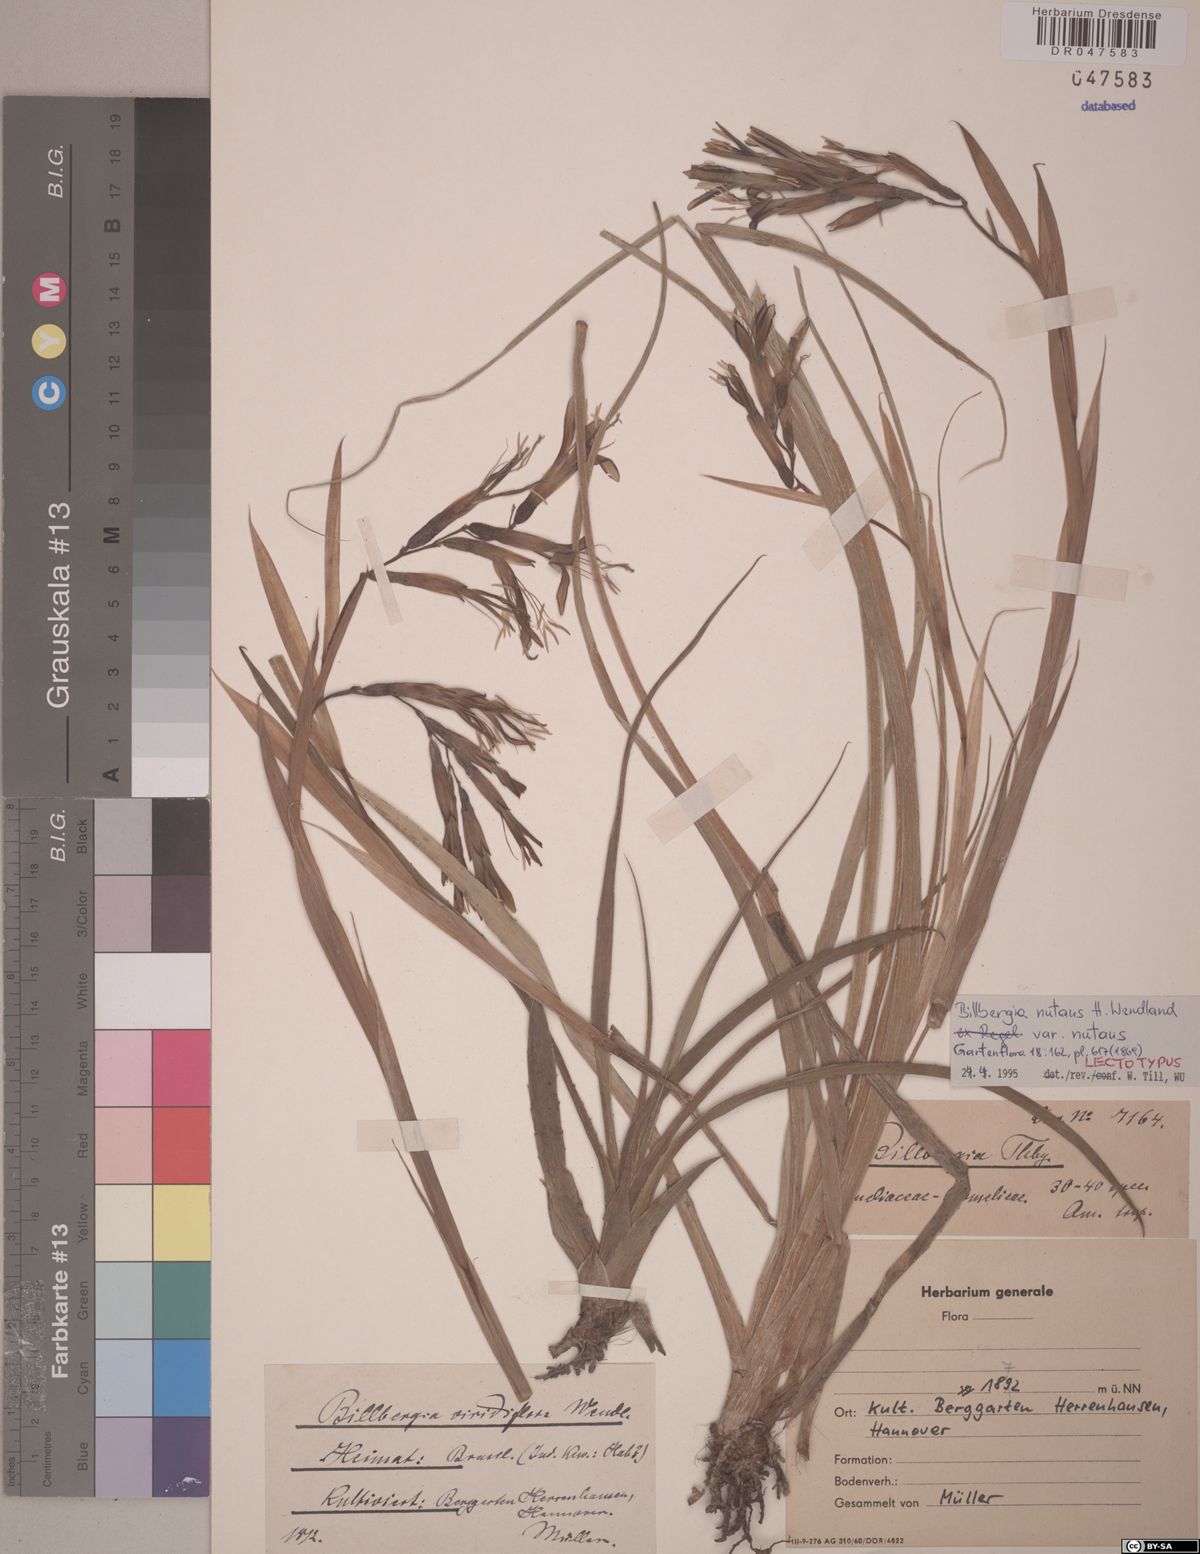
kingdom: Plantae
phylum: Tracheophyta
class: Liliopsida
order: Poales
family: Bromeliaceae
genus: Billbergia
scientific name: Billbergia nutans
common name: Friendship-plant
